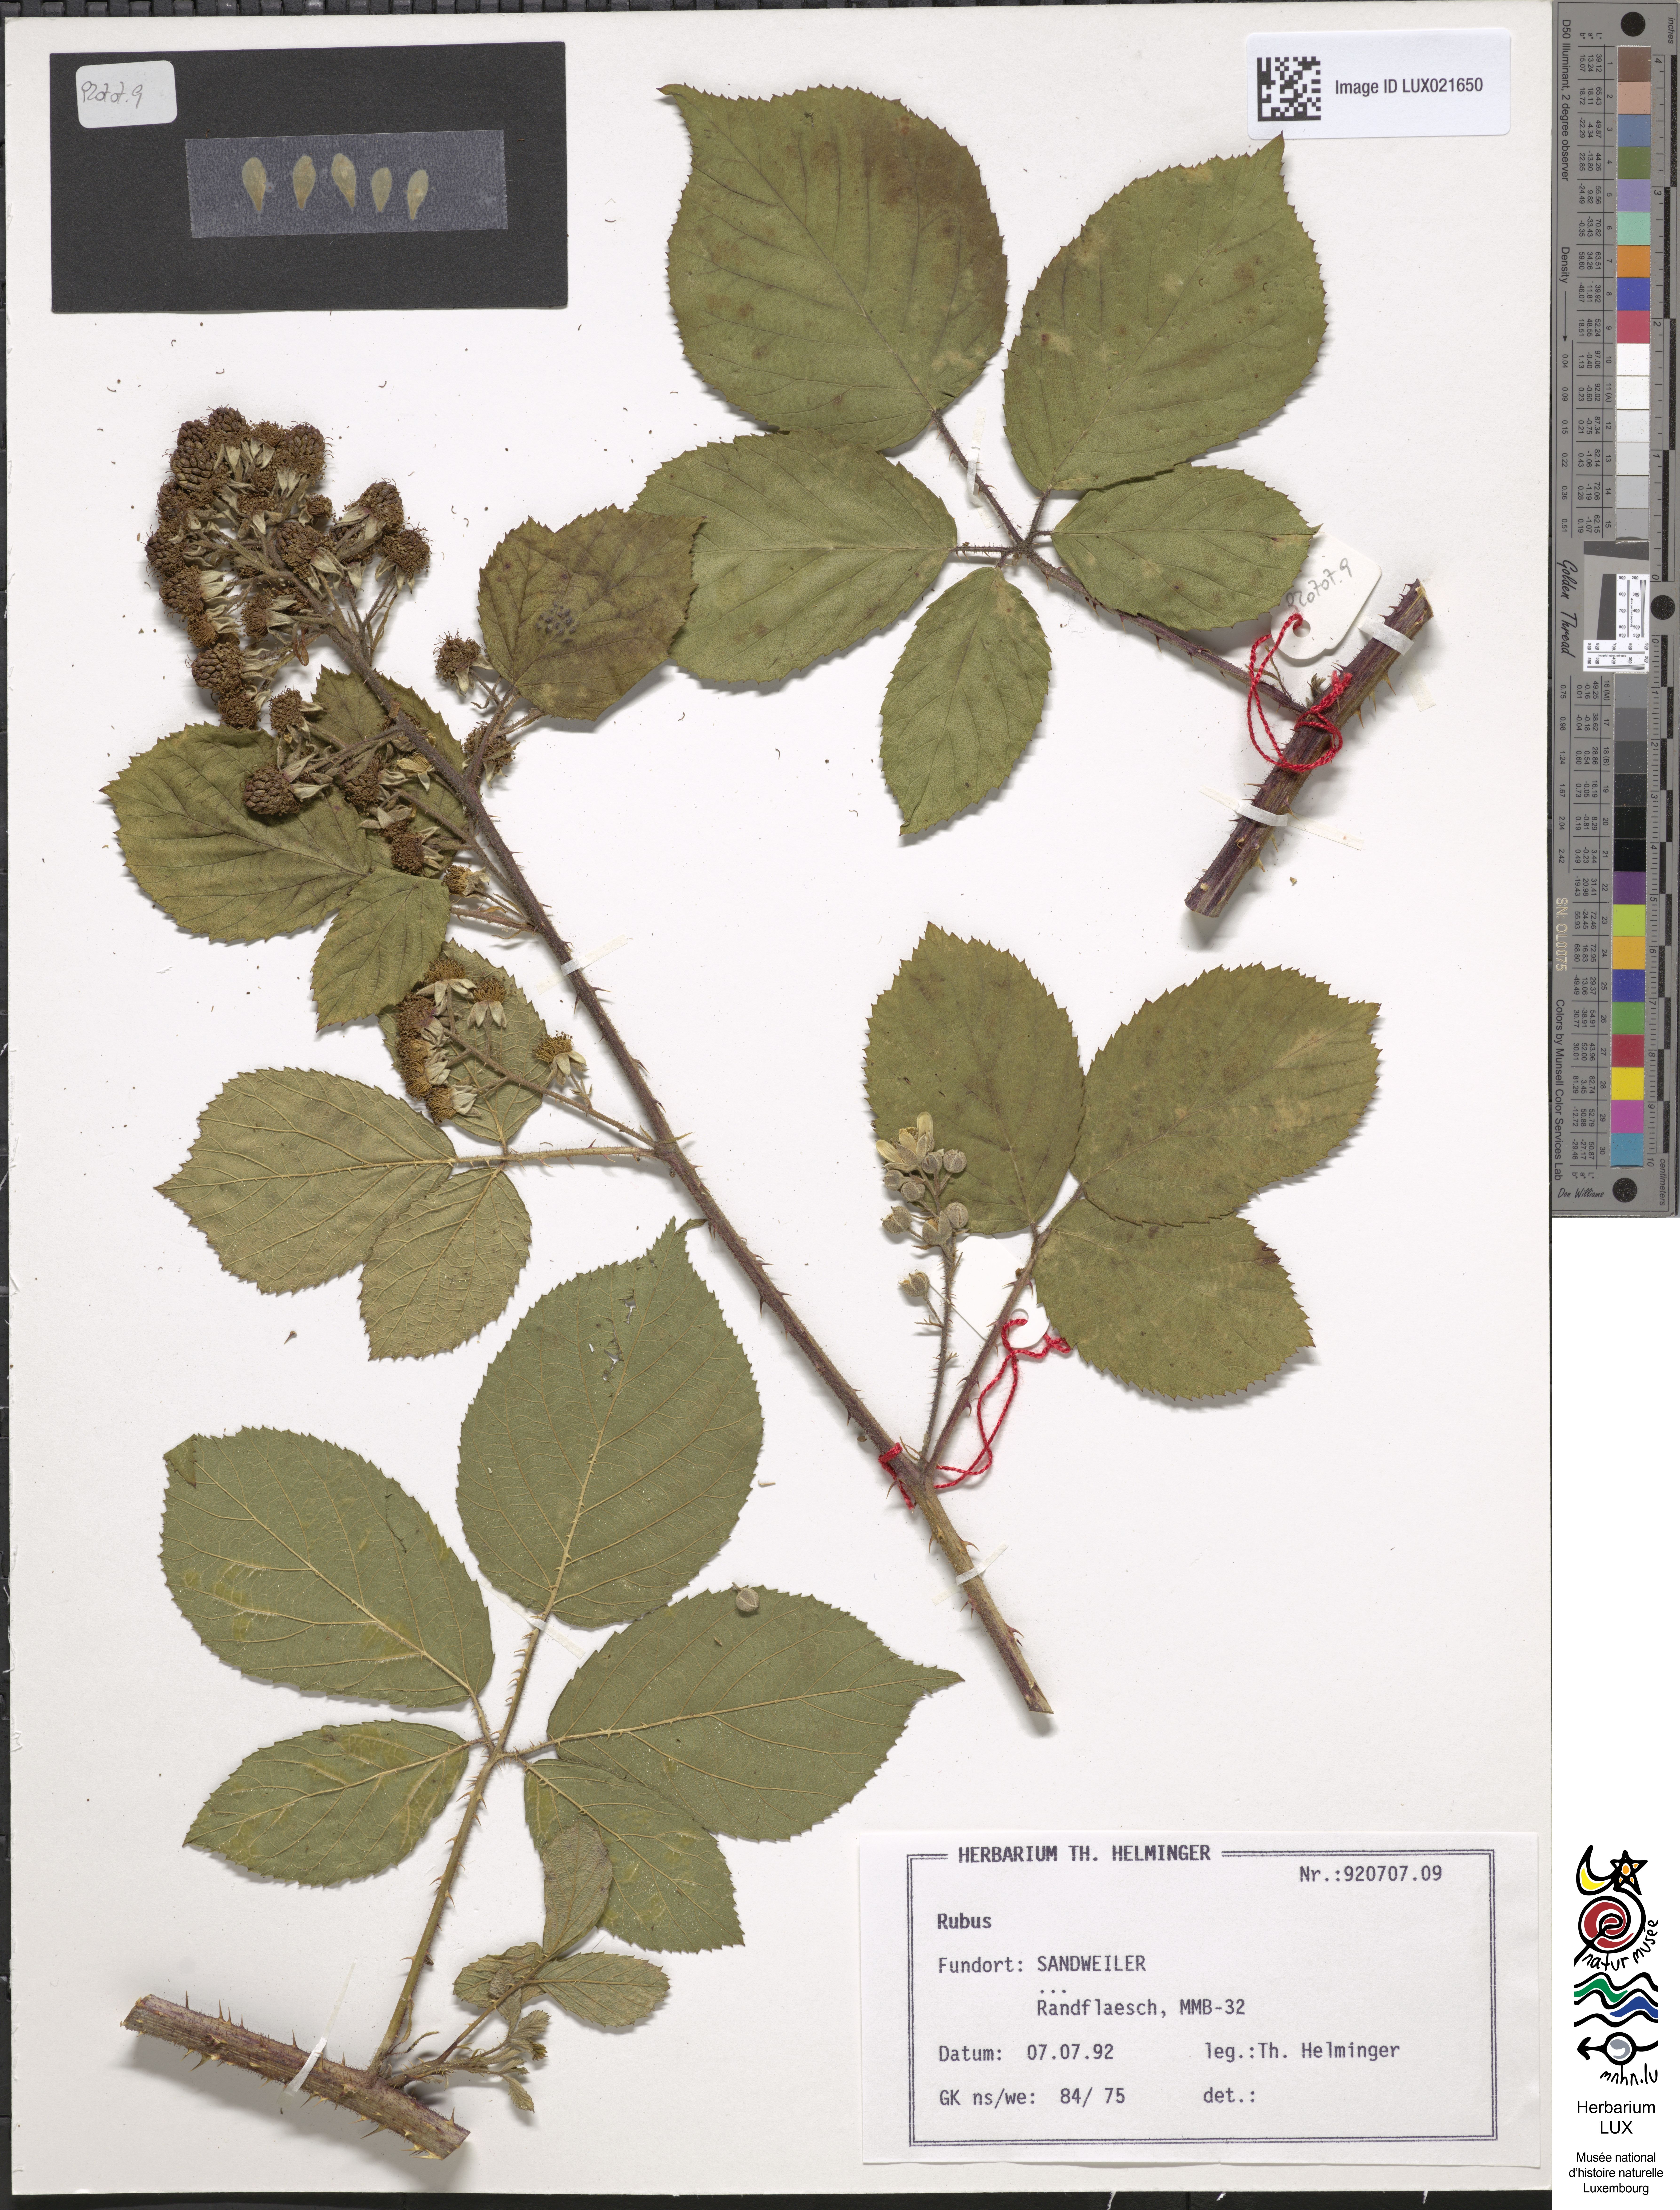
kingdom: Plantae
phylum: Tracheophyta
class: Magnoliopsida
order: Rosales
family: Rosaceae
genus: Rubus
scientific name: Rubus
